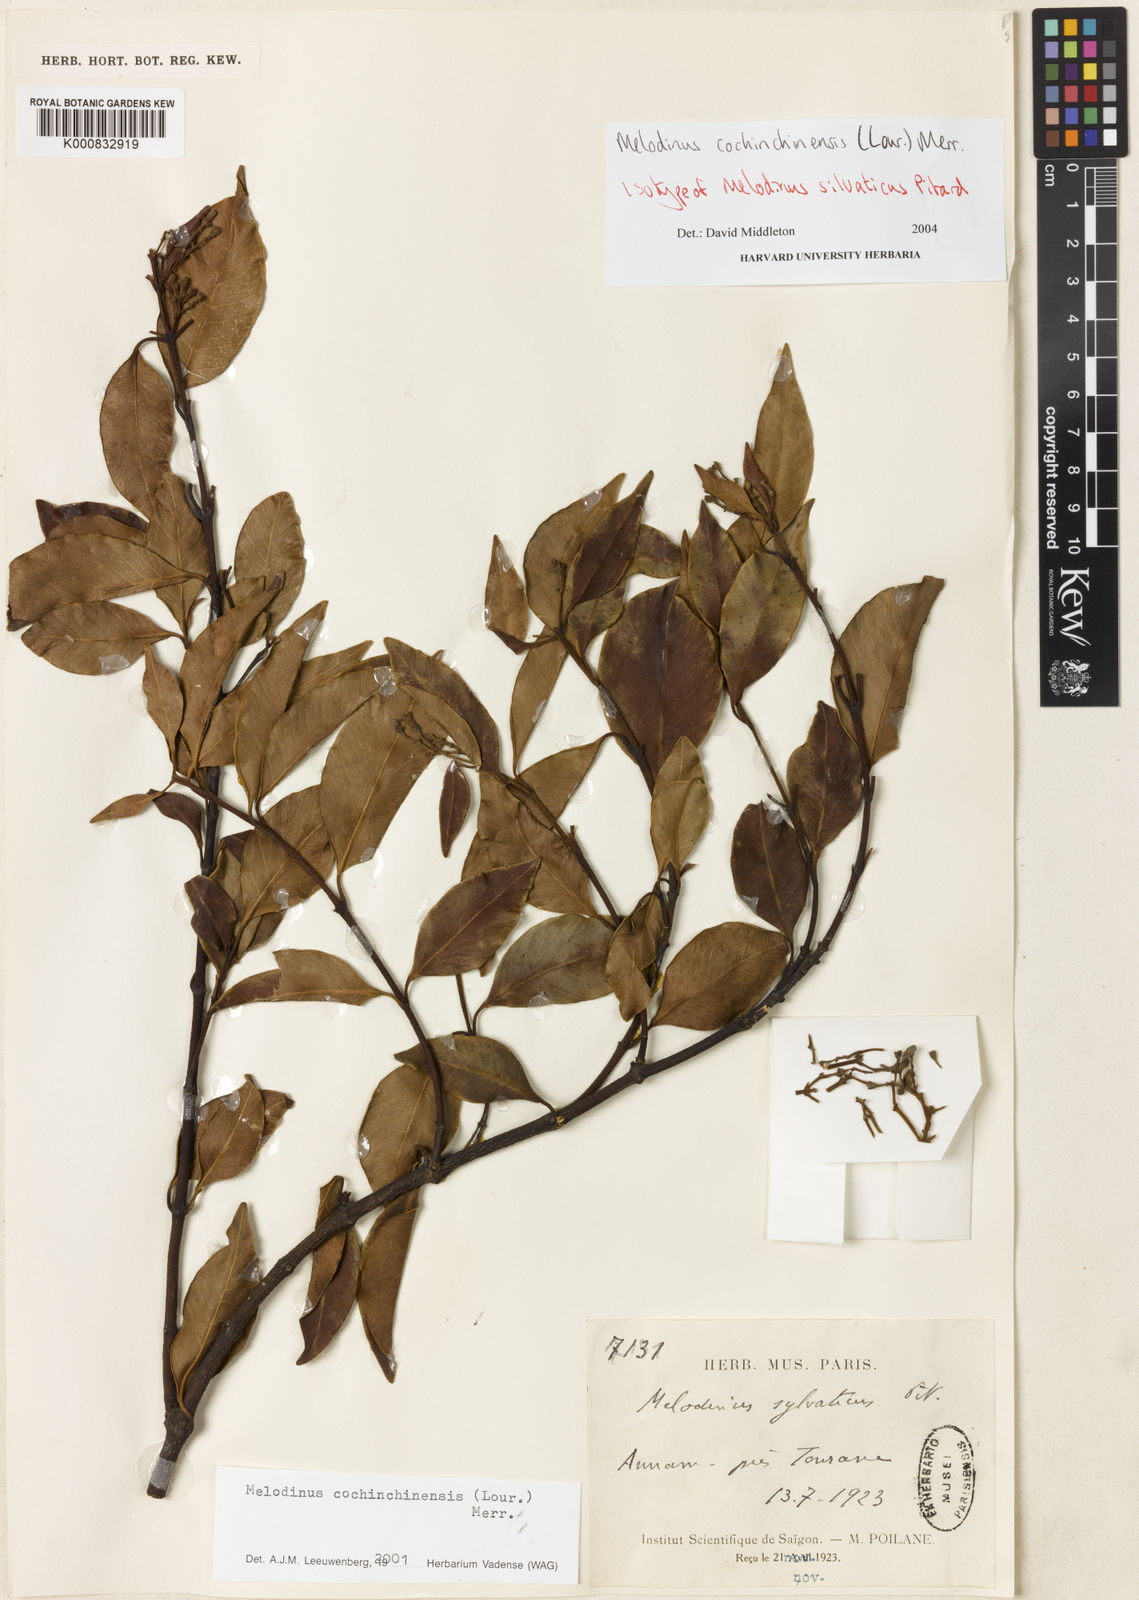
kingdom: Plantae
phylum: Tracheophyta
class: Magnoliopsida
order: Gentianales
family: Apocynaceae
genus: Melodinus
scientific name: Melodinus cochinchinensis
